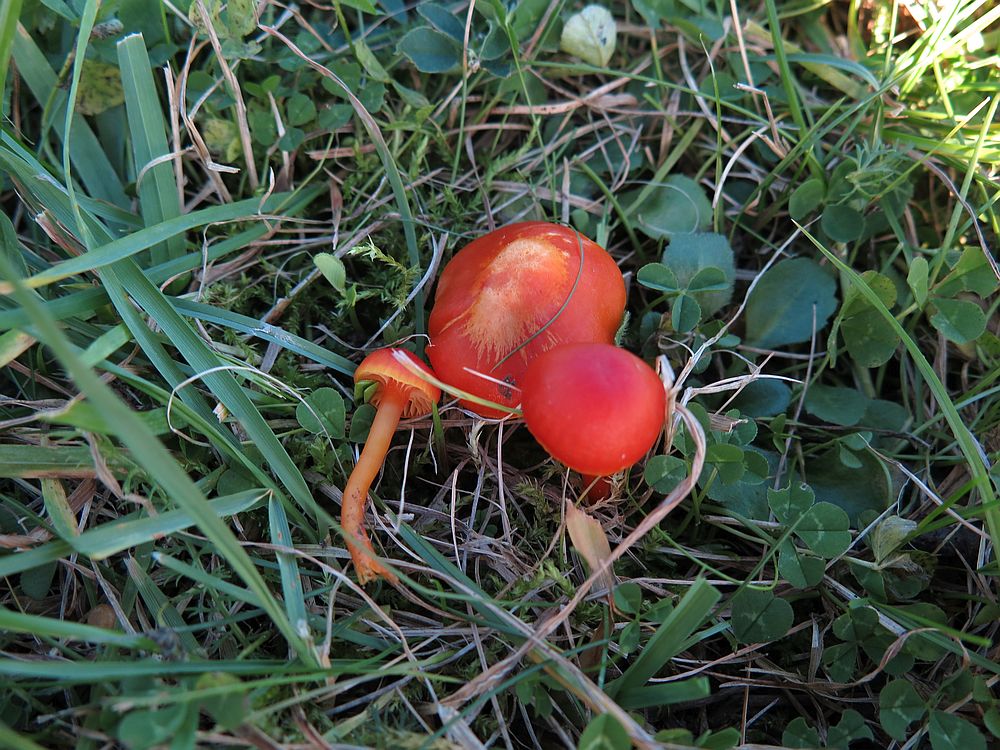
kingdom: Fungi
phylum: Basidiomycota
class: Agaricomycetes
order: Agaricales
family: Hygrophoraceae
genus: Hygrocybe
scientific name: Hygrocybe
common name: vokshat
